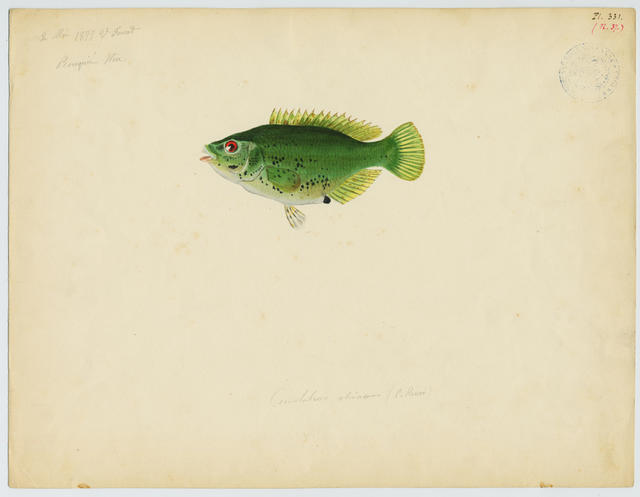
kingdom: Animalia
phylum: Chordata
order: Perciformes
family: Labridae
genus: Symphodus
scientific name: Symphodus roissali
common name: Five-spotted wrasse
